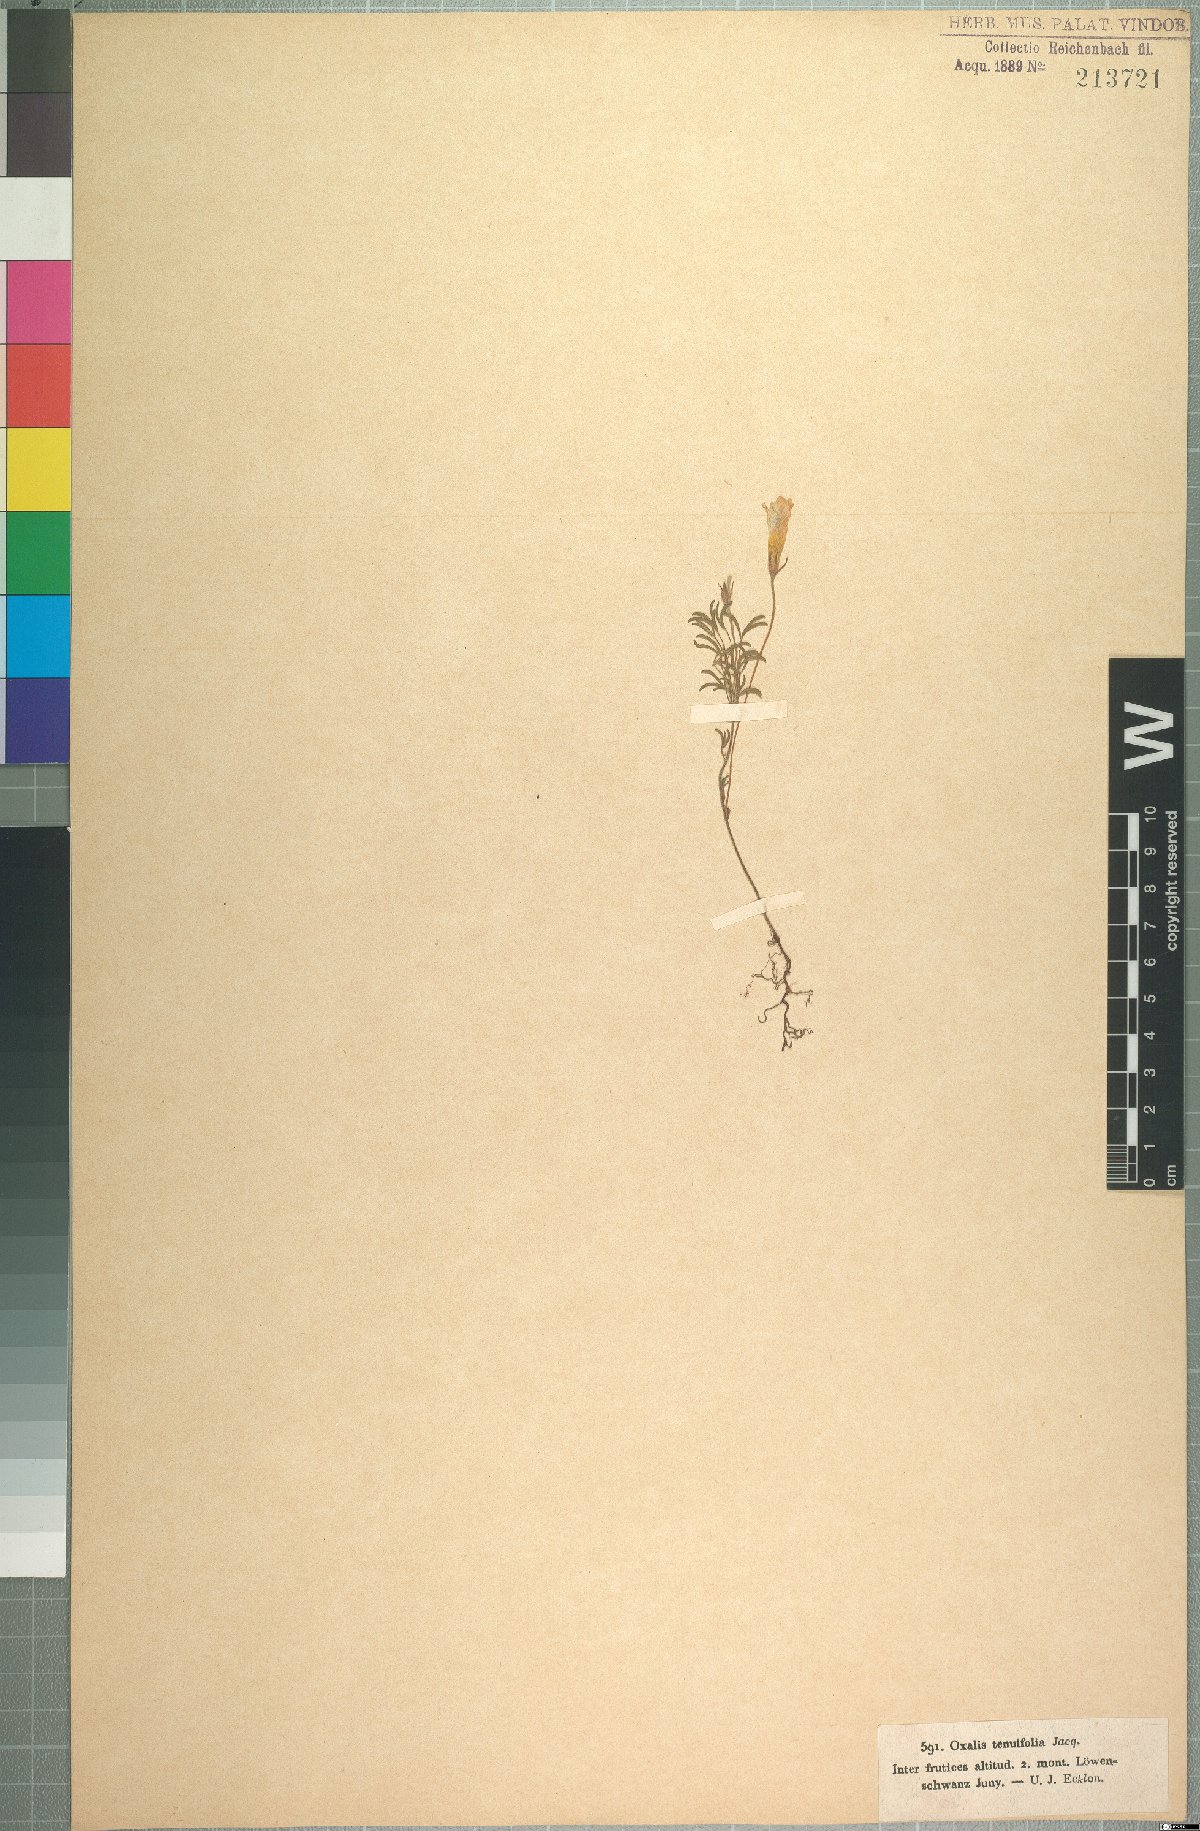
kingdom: Plantae
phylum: Tracheophyta
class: Magnoliopsida
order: Oxalidales
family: Oxalidaceae
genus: Oxalis
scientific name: Oxalis falcatula
